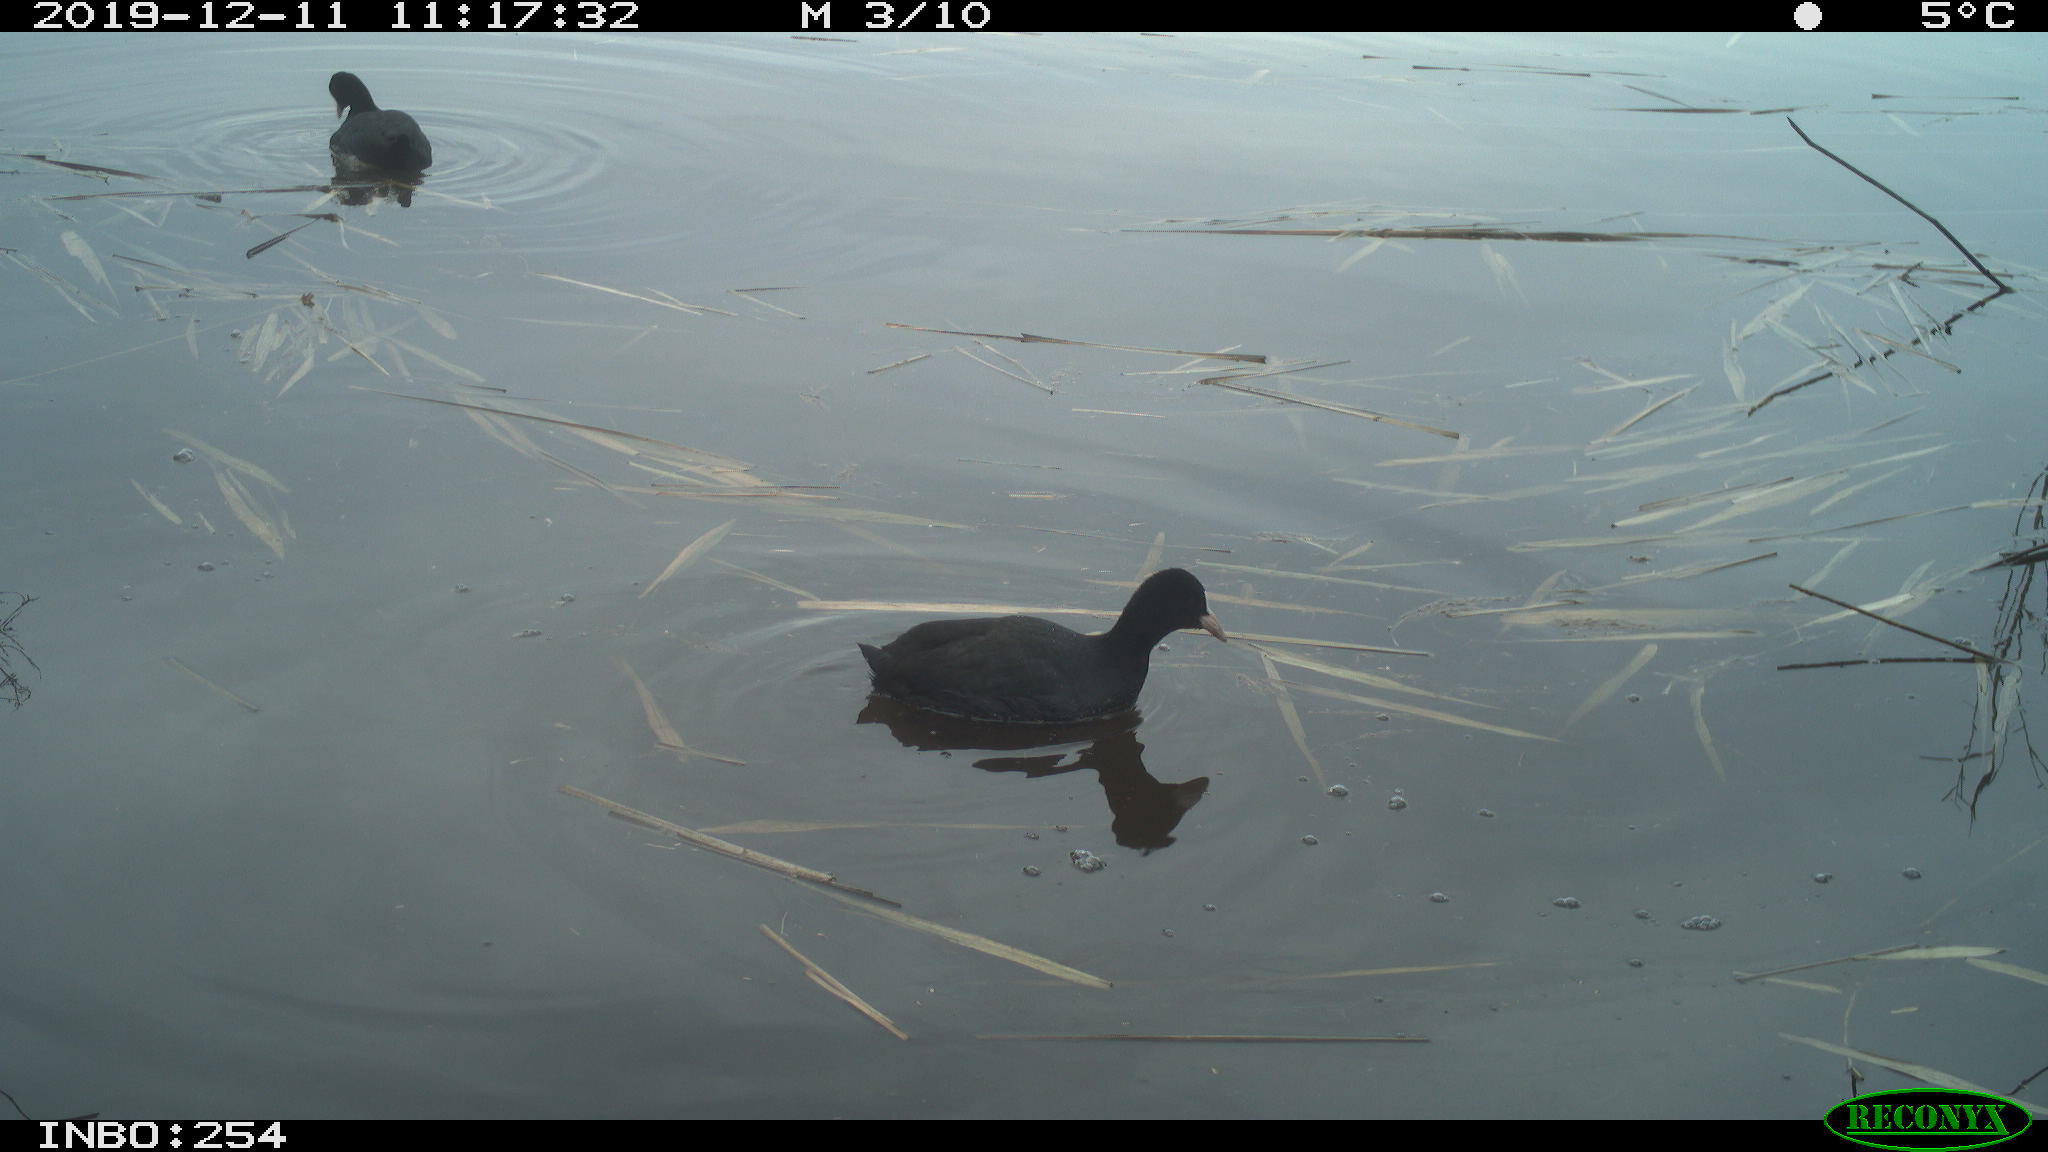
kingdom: Animalia
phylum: Chordata
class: Aves
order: Gruiformes
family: Rallidae
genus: Fulica
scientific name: Fulica atra
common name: Eurasian coot
